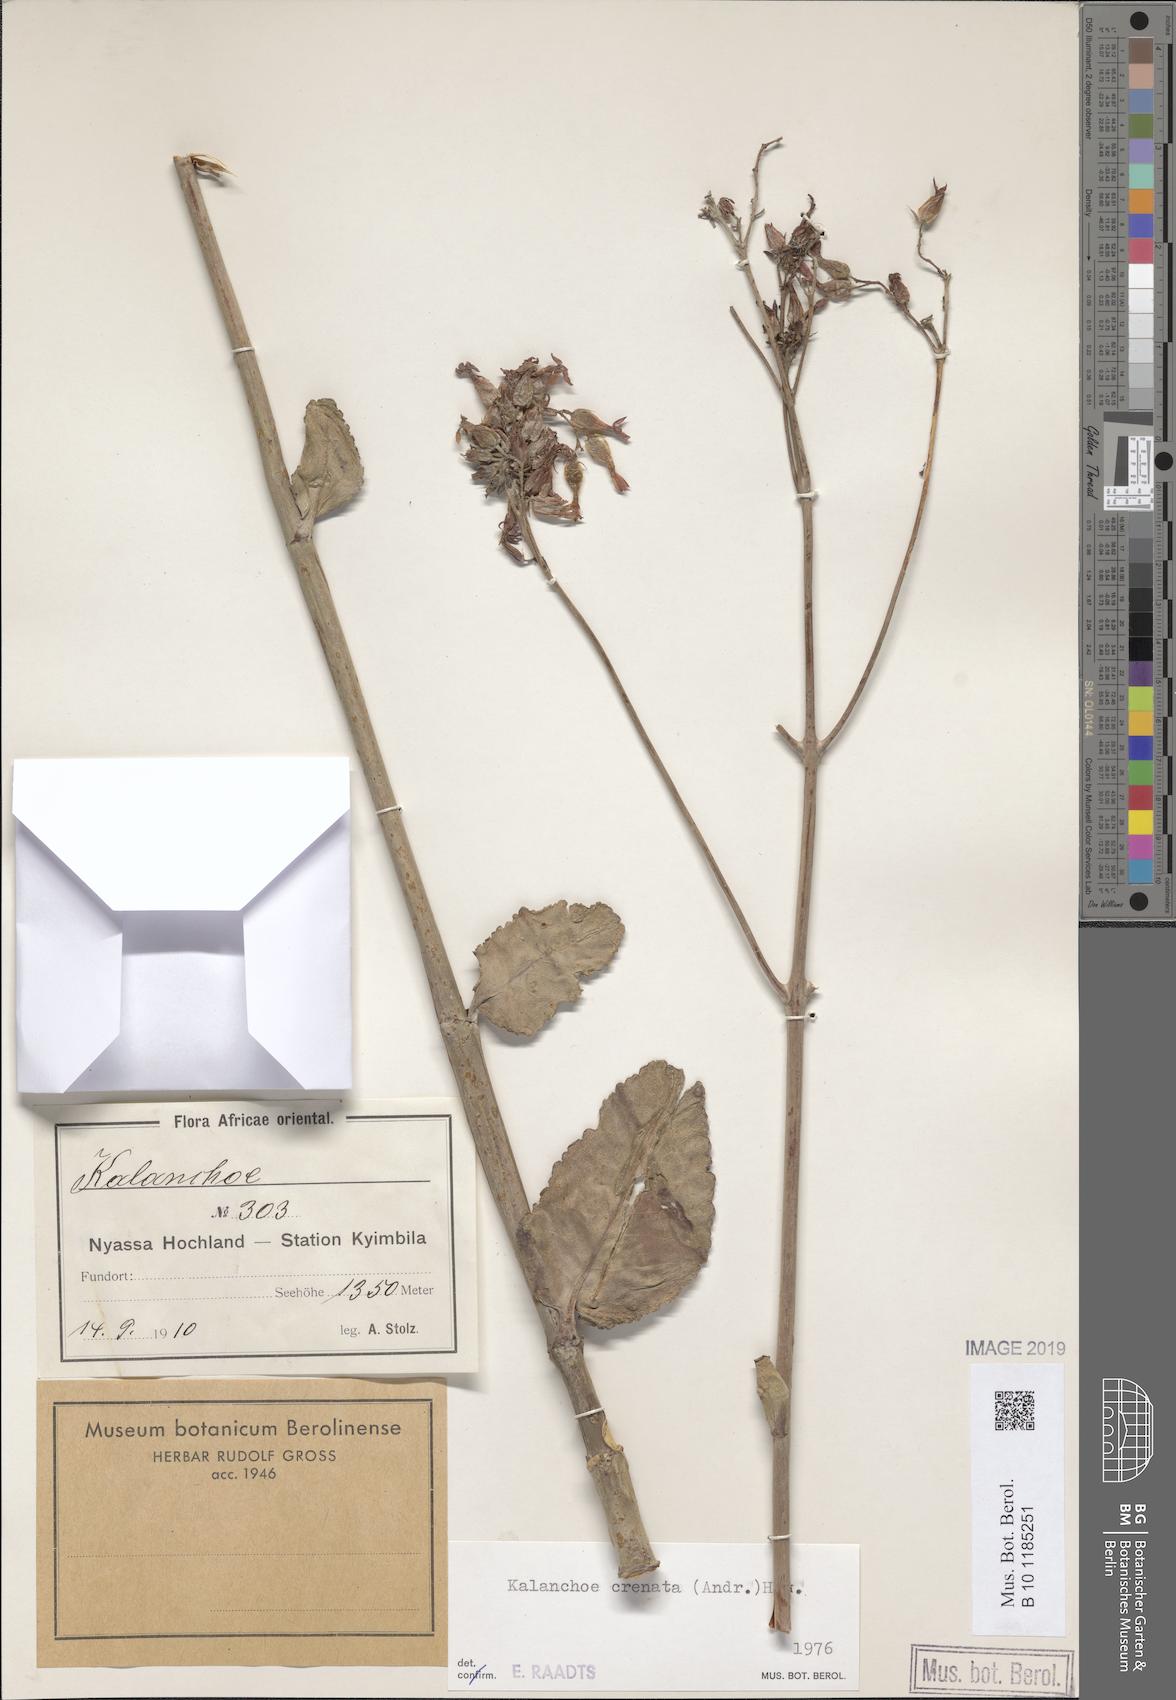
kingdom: Plantae
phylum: Tracheophyta
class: Magnoliopsida
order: Saxifragales
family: Crassulaceae
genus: Kalanchoe
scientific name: Kalanchoe crenata
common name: Neverdie
